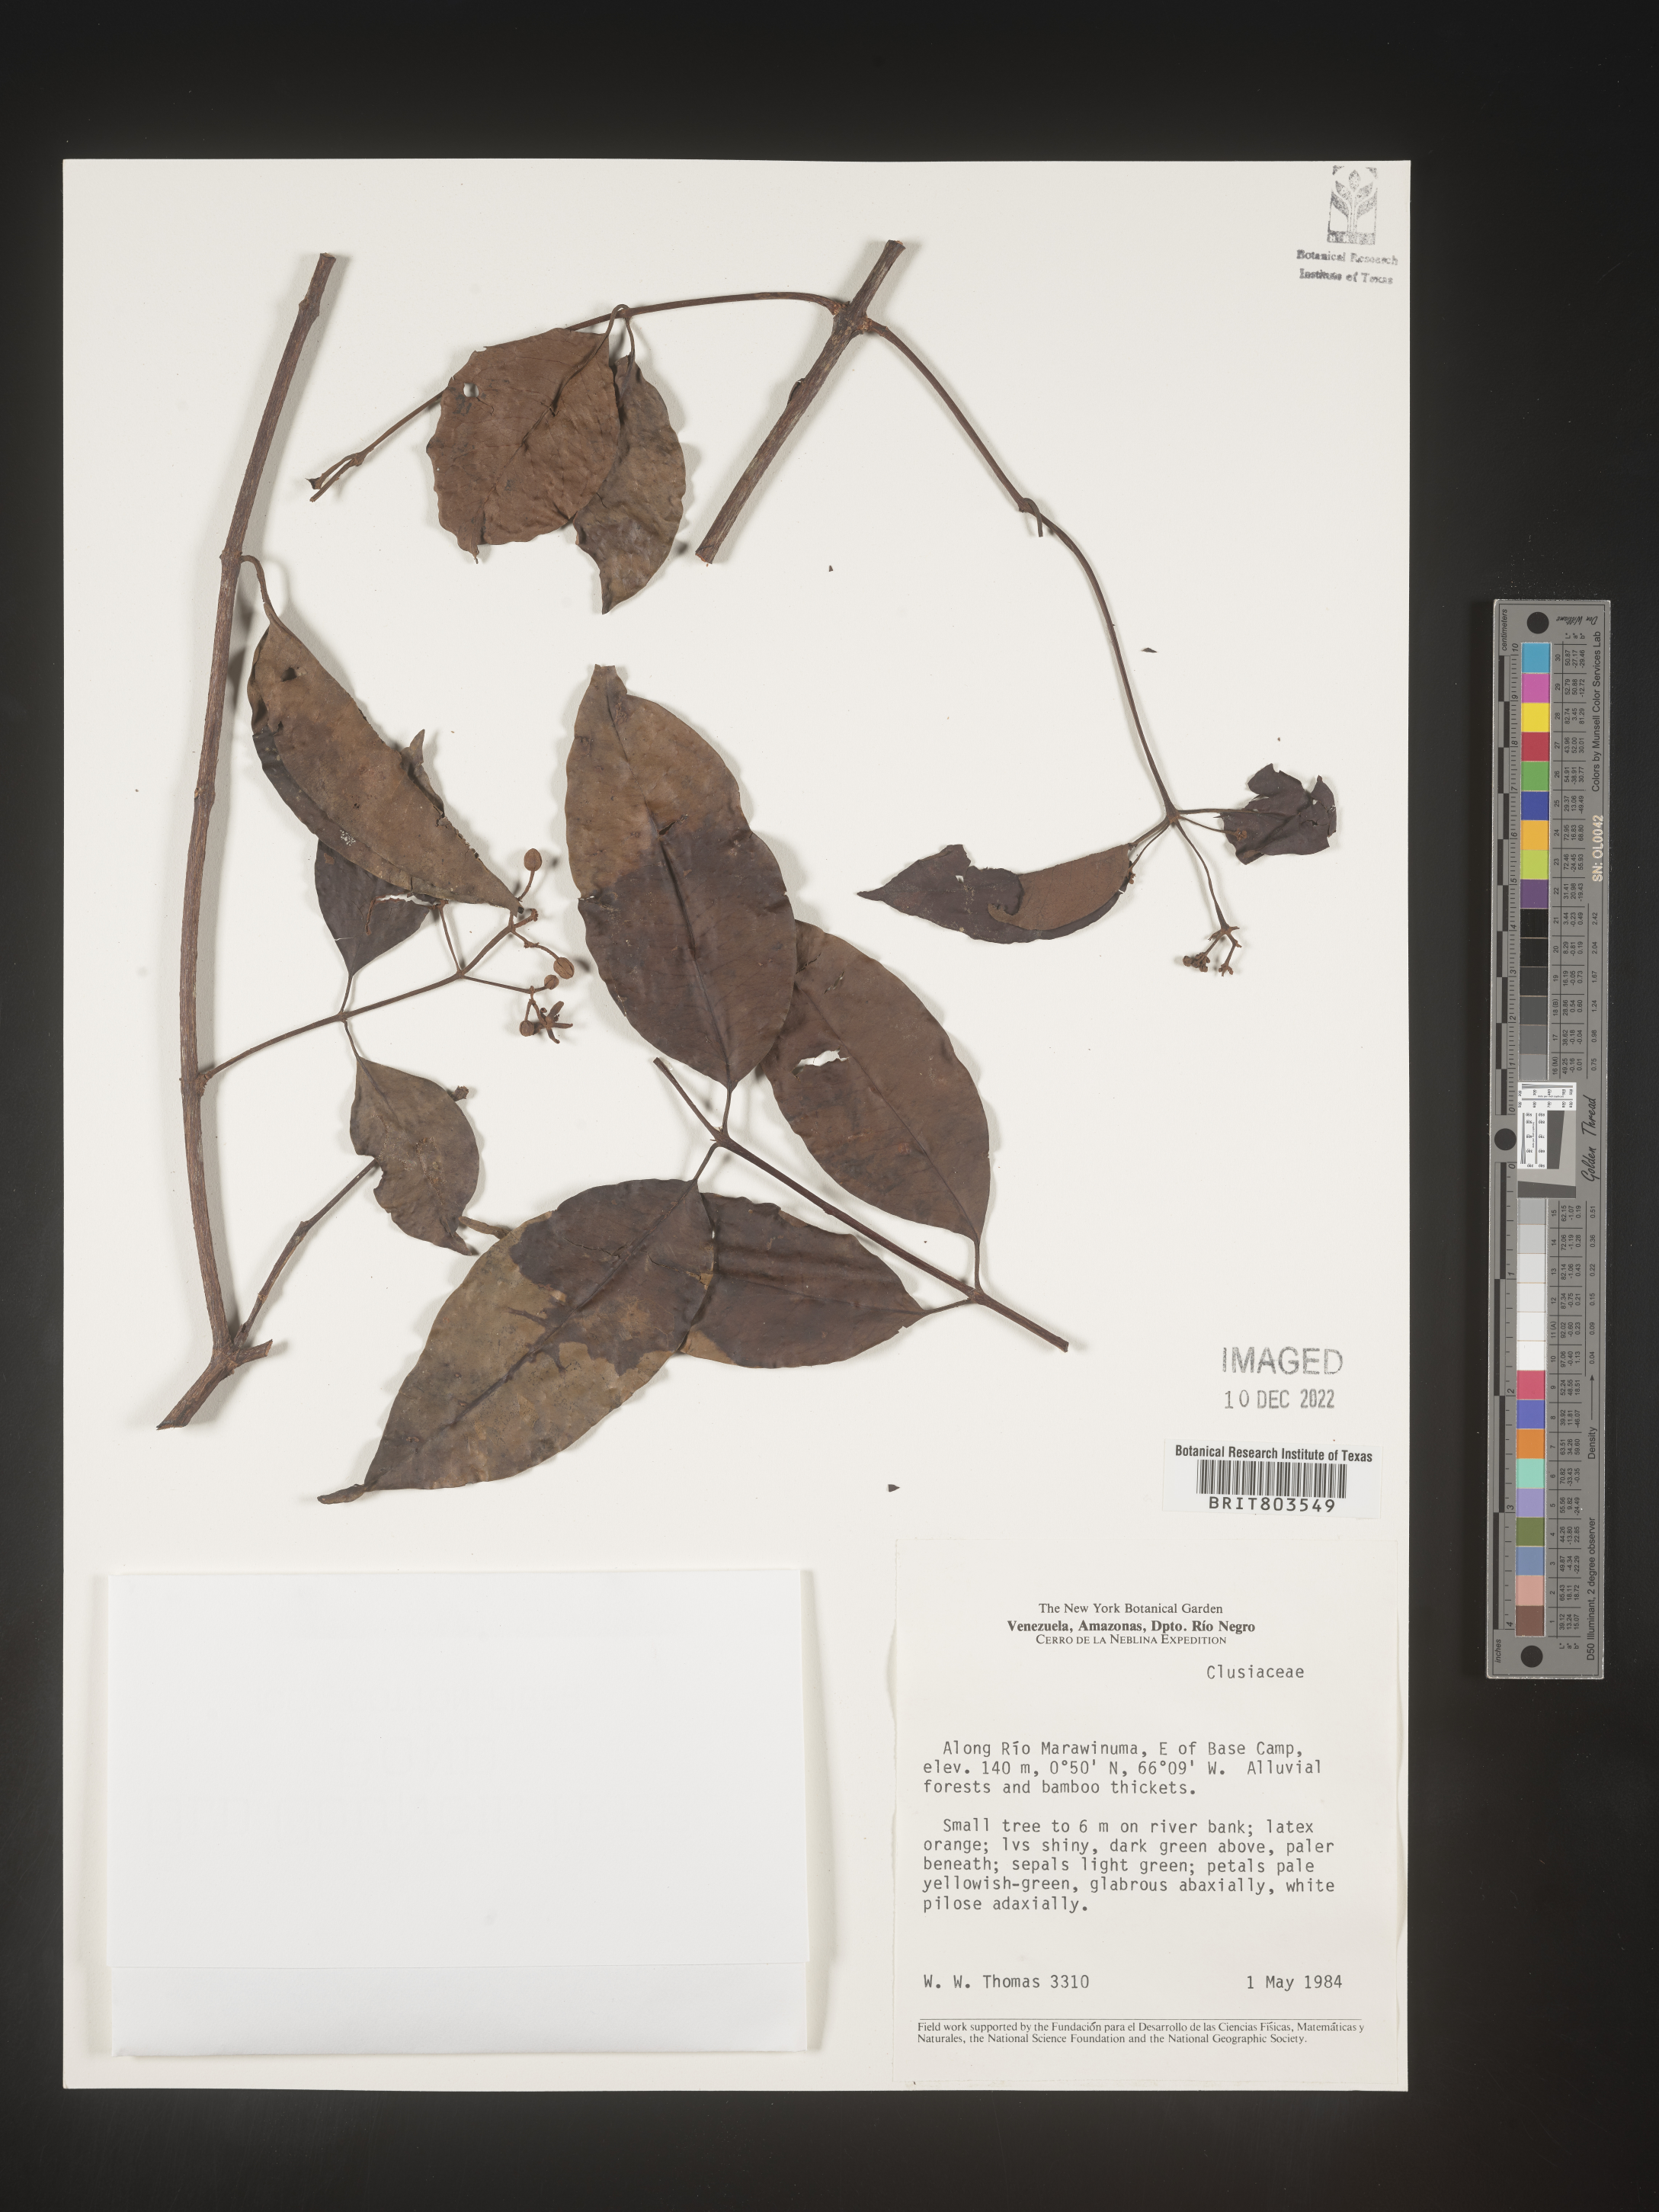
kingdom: Plantae
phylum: Tracheophyta
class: Magnoliopsida
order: Malpighiales
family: Clusiaceae
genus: Tovomita
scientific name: Tovomita
